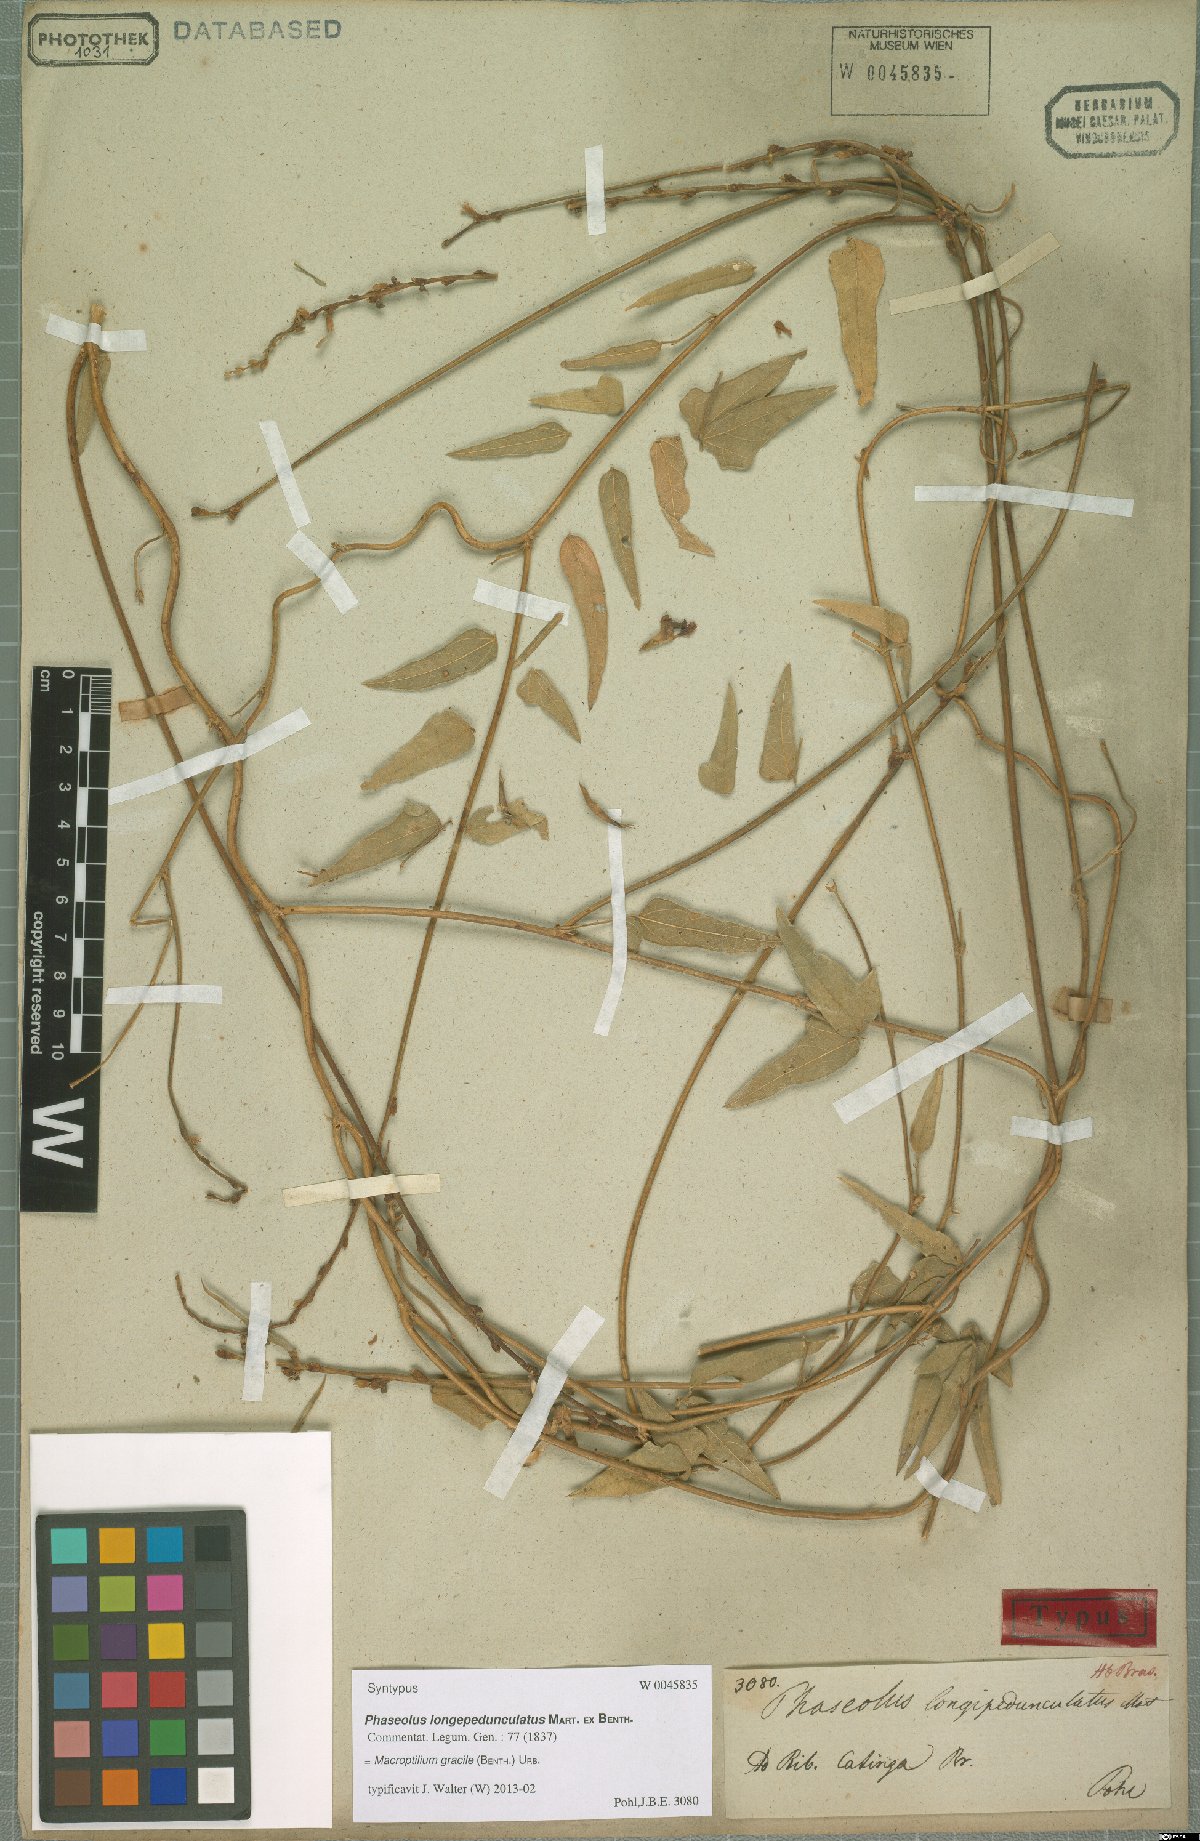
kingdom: Plantae
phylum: Tracheophyta
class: Magnoliopsida
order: Fabales
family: Fabaceae
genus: Macroptilium
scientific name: Macroptilium gracile
